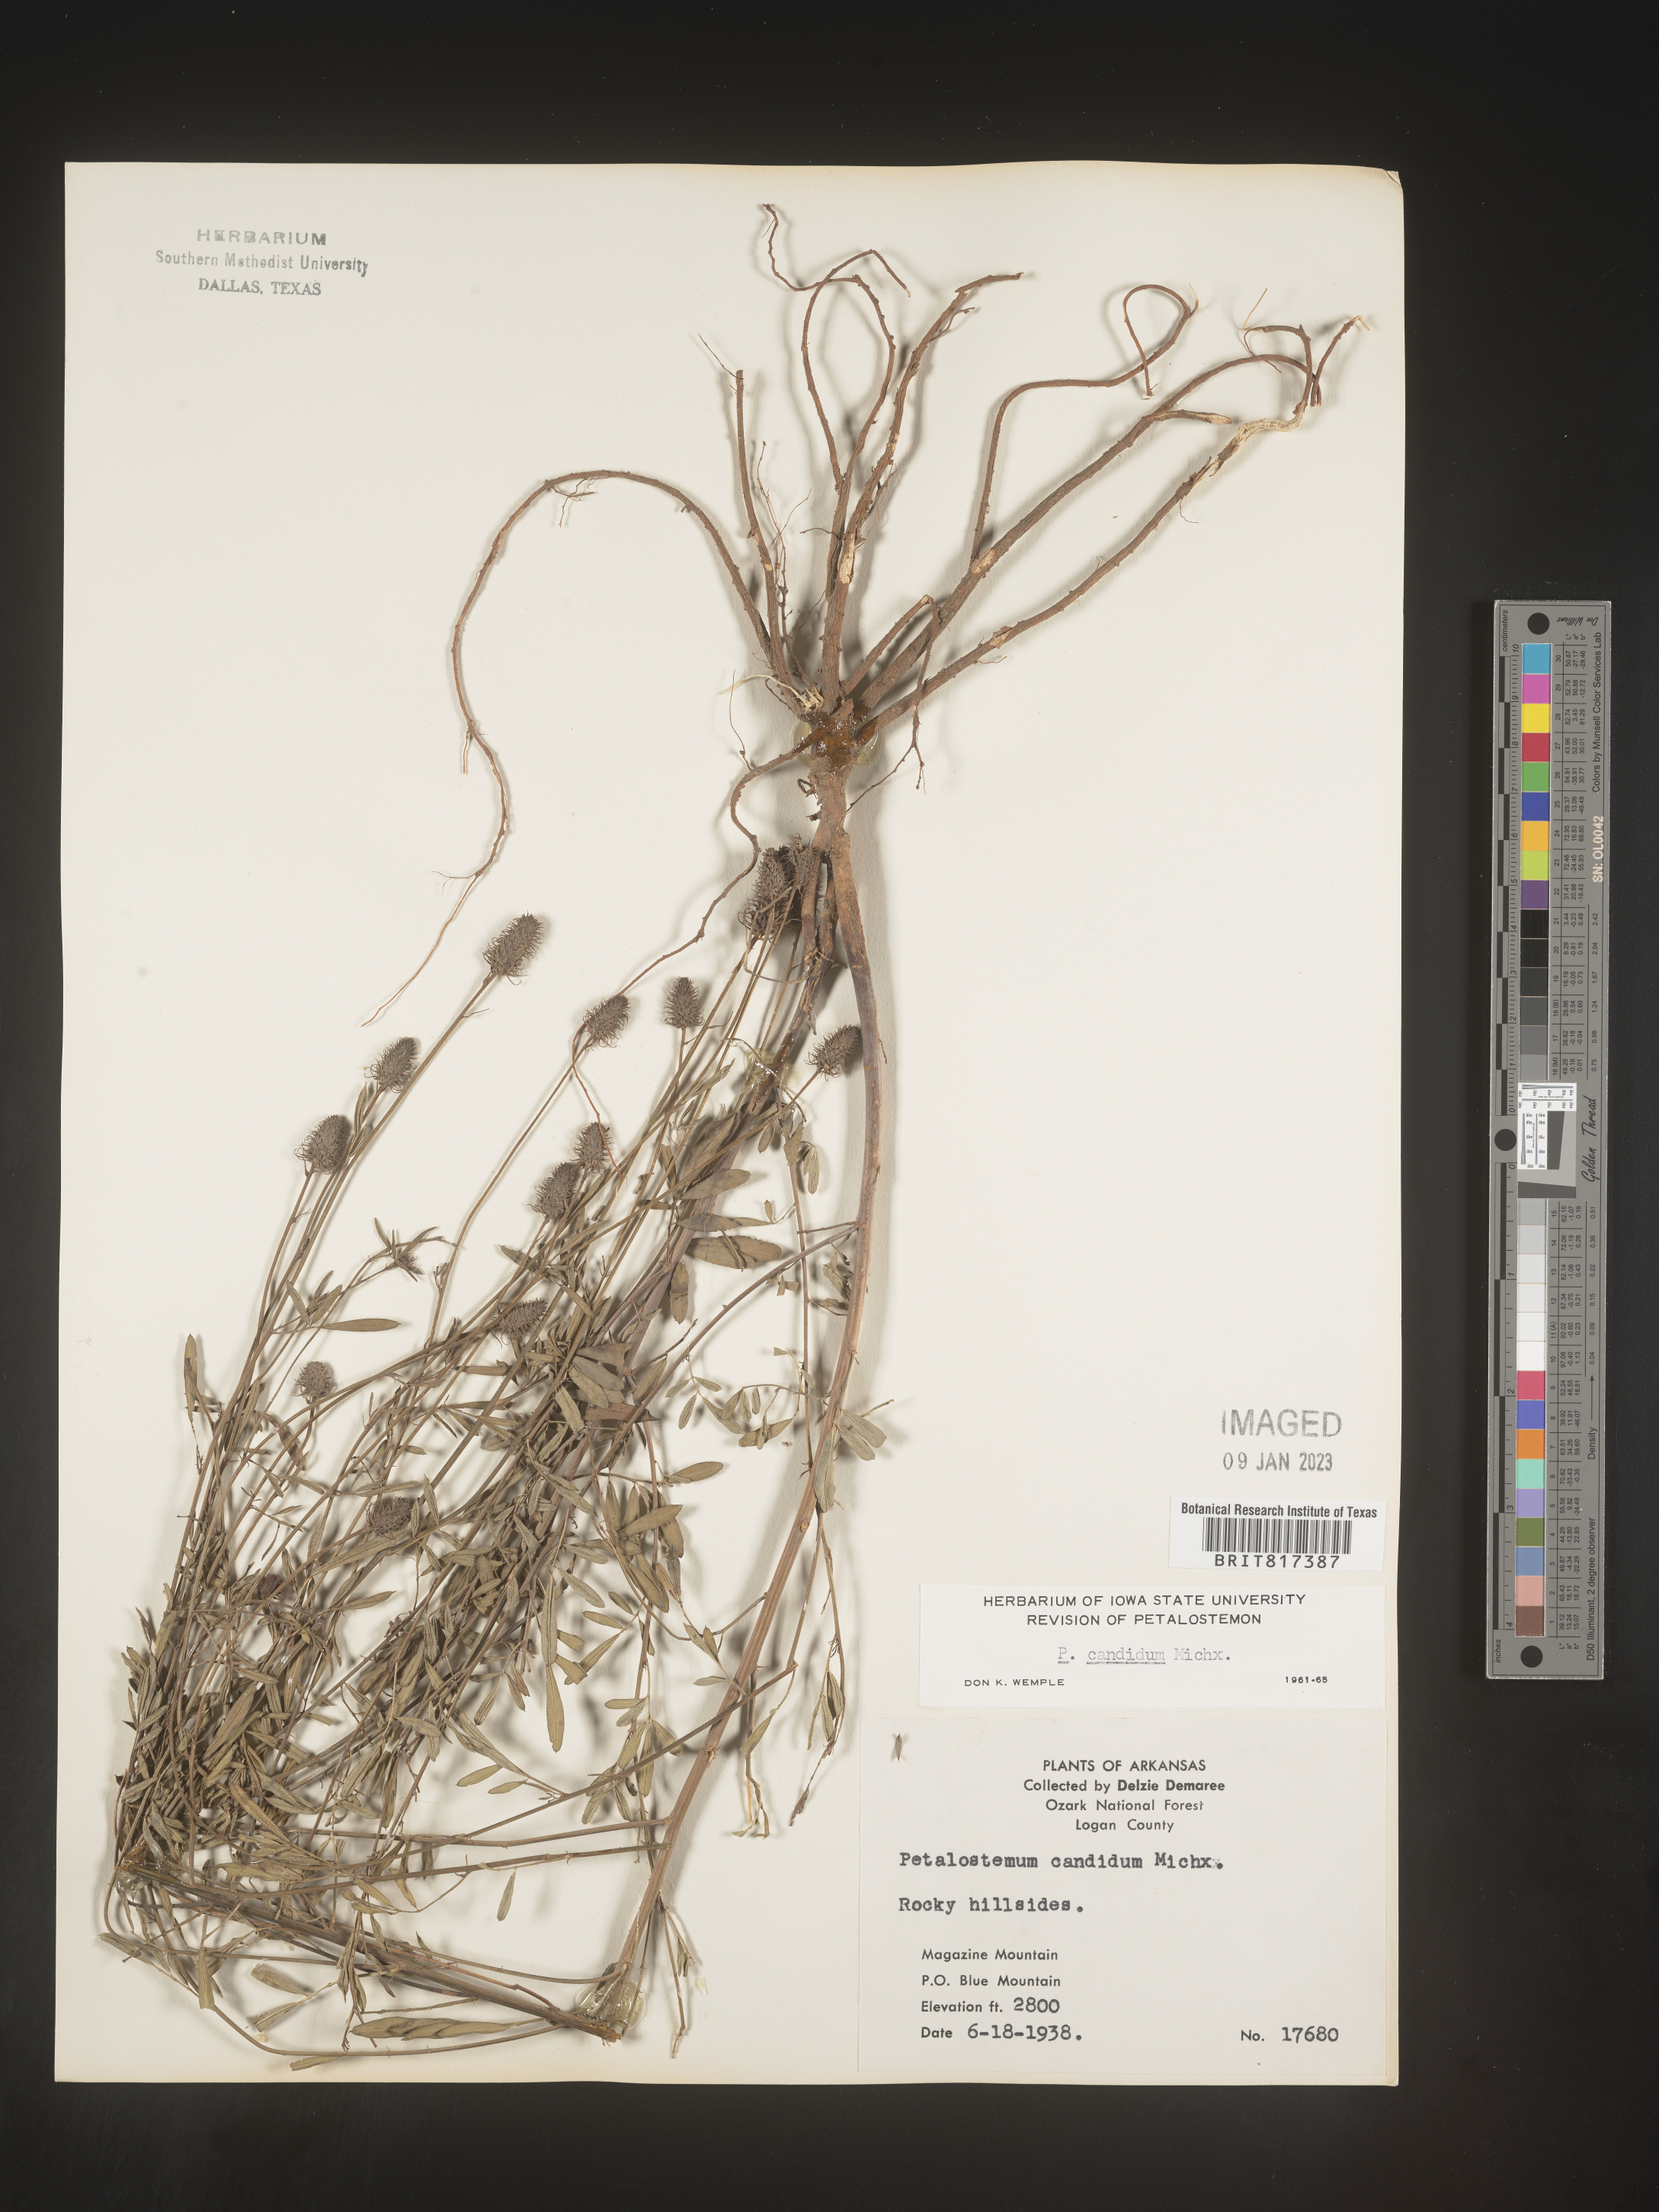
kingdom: Plantae
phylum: Tracheophyta
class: Magnoliopsida
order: Fabales
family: Fabaceae
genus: Dalea
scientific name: Dalea candida
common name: White prairie-clover
